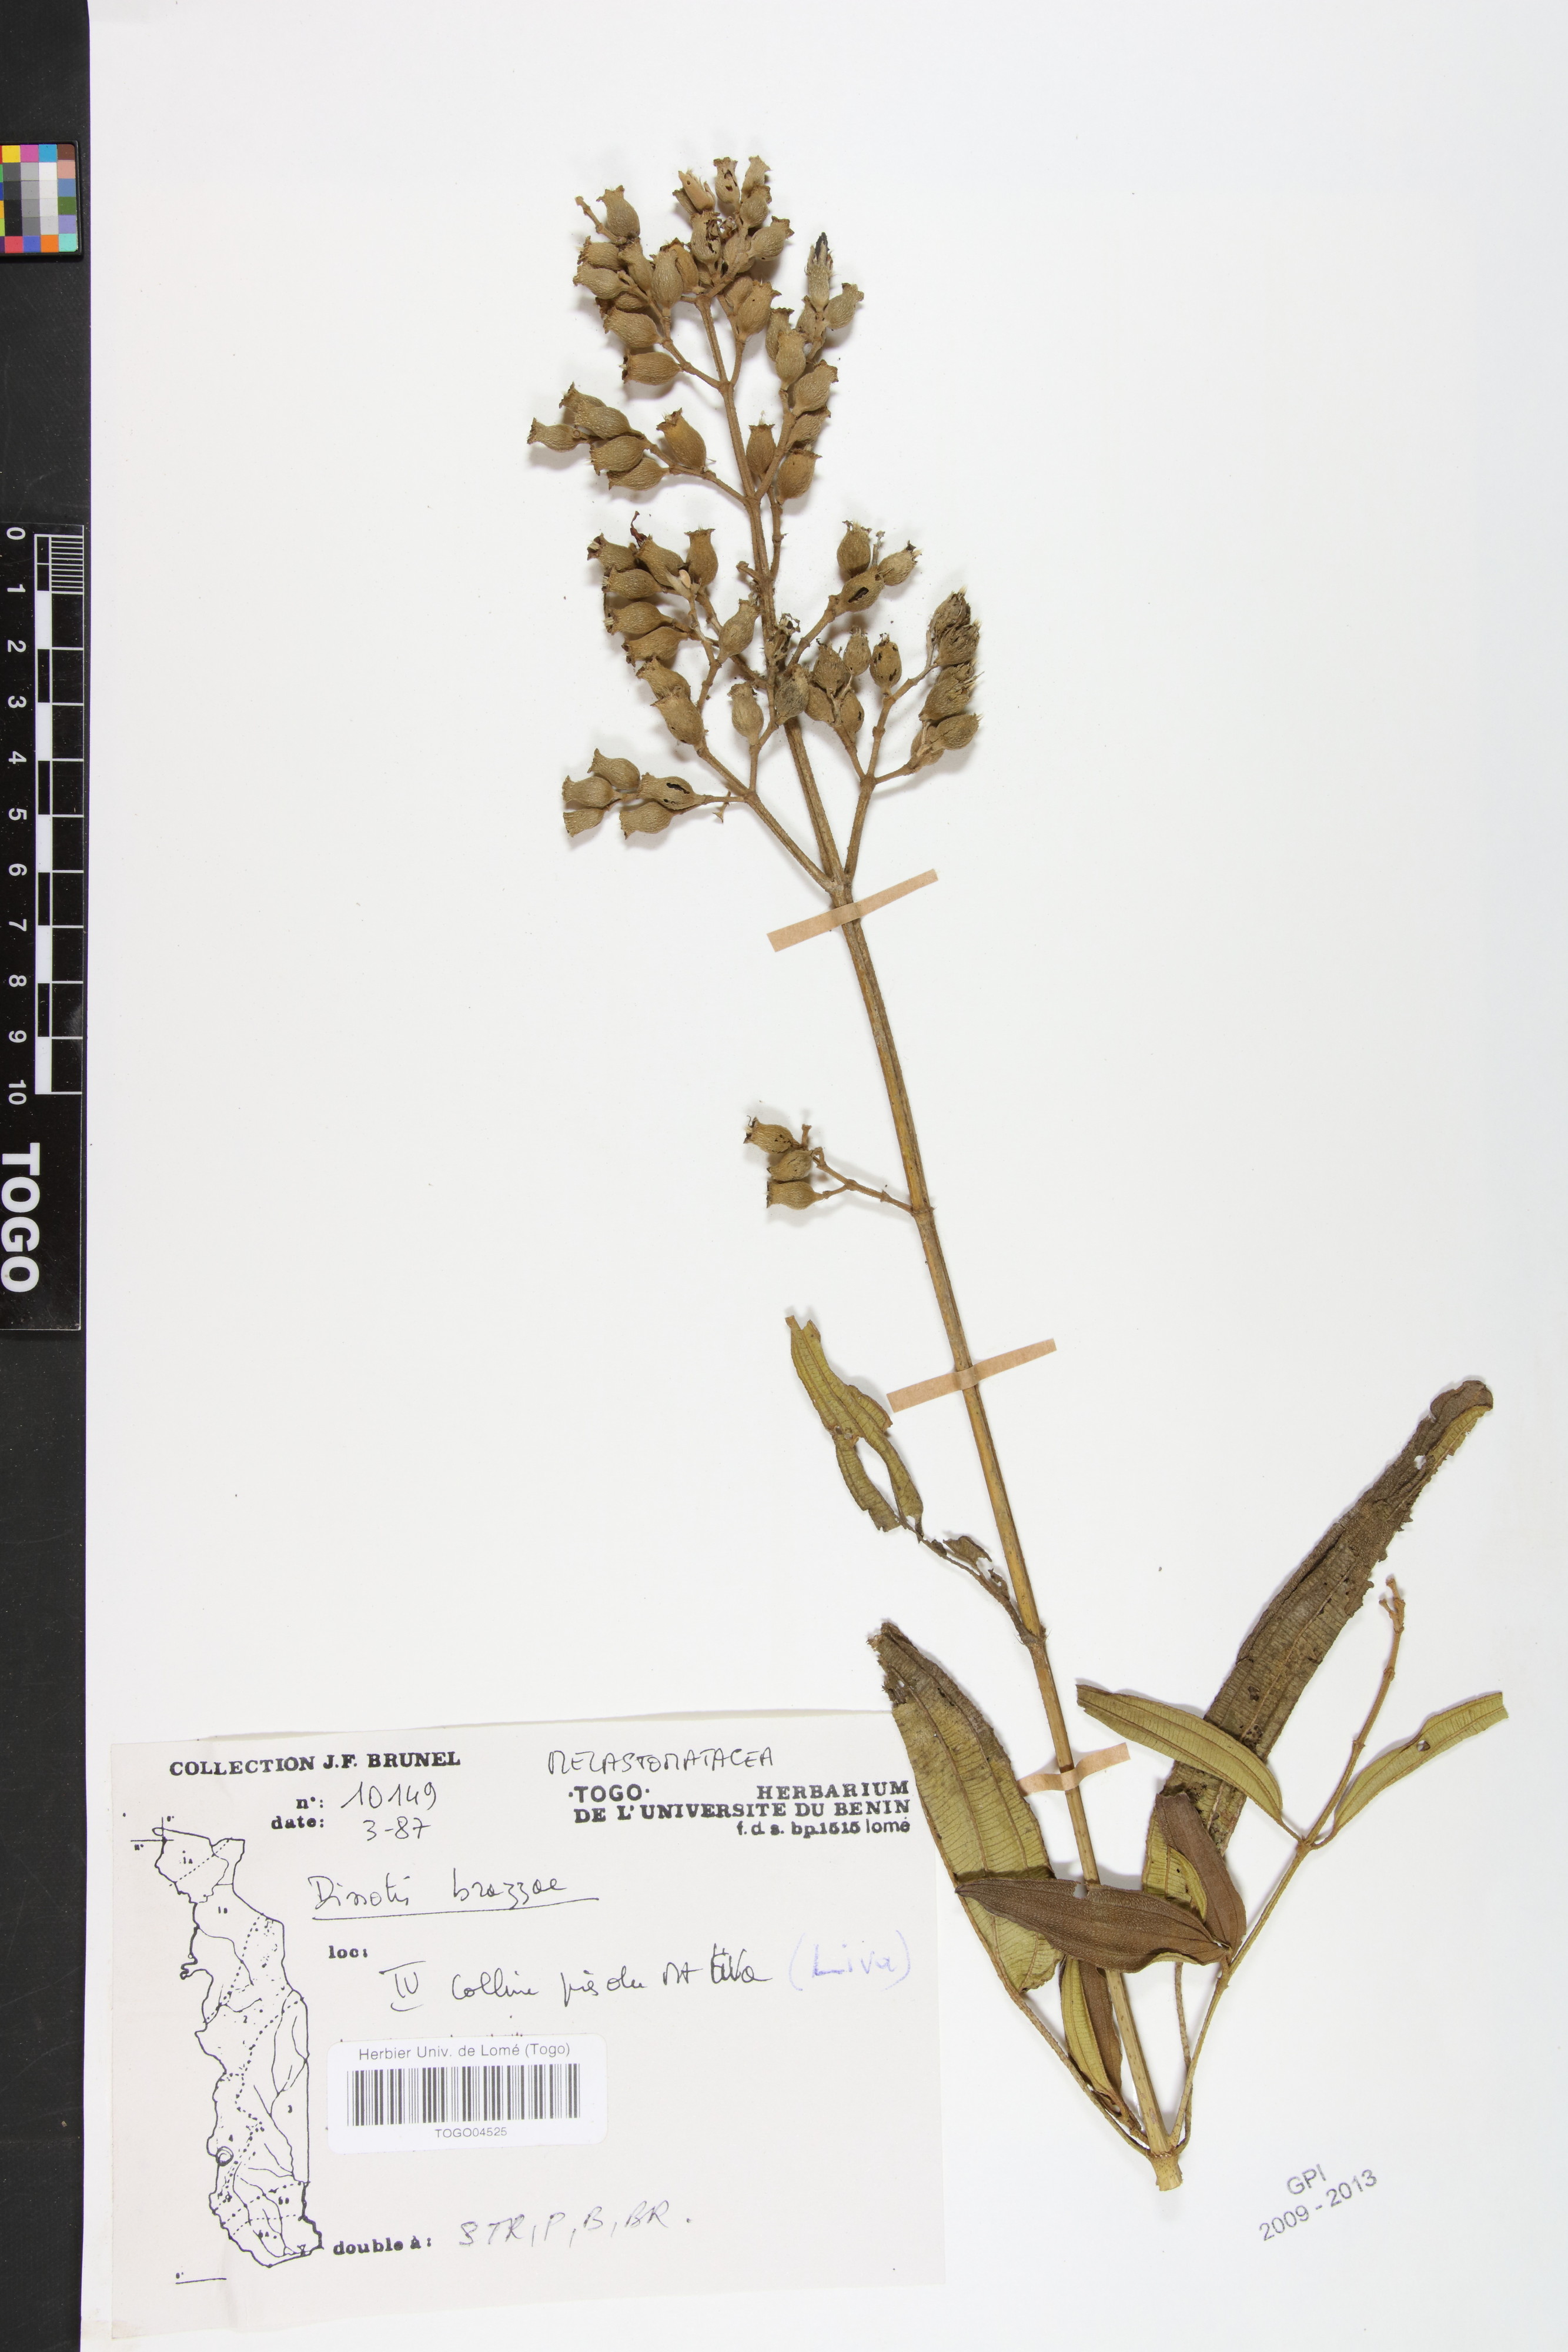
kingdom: Plantae
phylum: Tracheophyta
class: Magnoliopsida
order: Myrtales
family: Melastomataceae
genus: Dupineta
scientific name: Dupineta brazzae
